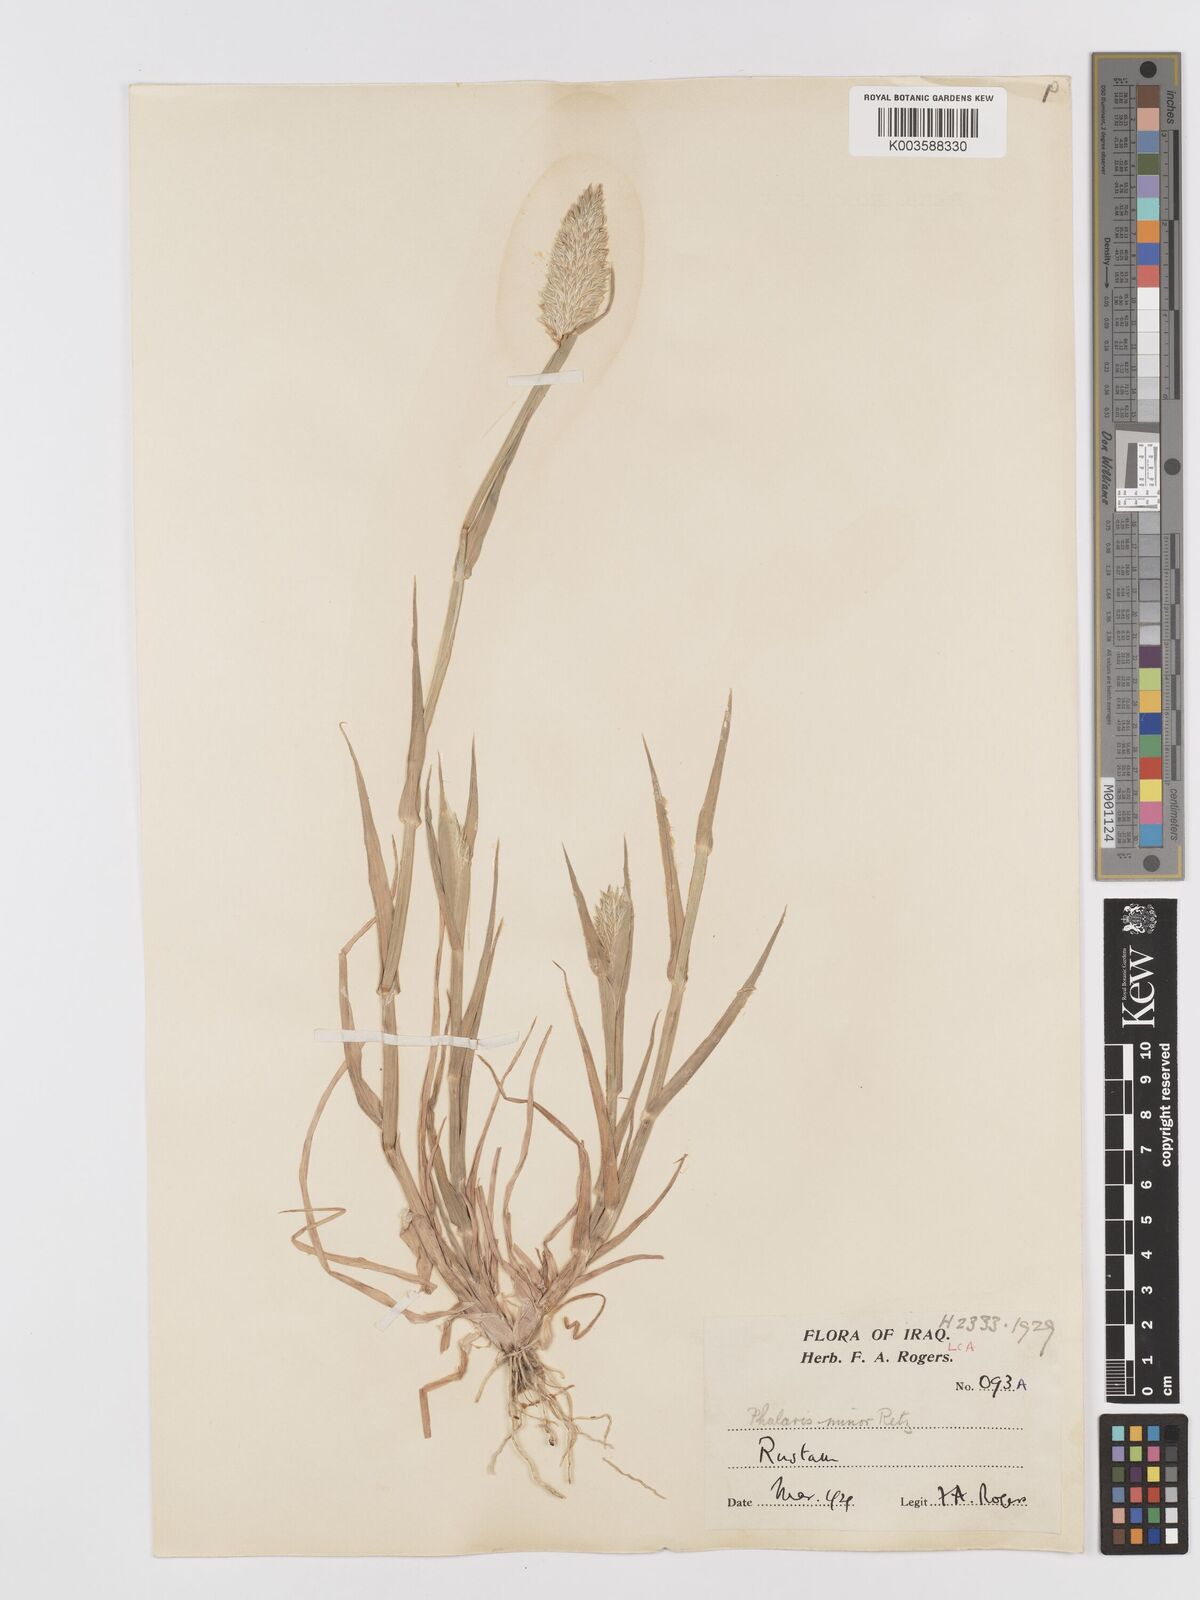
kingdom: Plantae
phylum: Tracheophyta
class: Liliopsida
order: Poales
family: Poaceae
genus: Phalaris
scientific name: Phalaris minor
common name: Littleseed canarygrass
